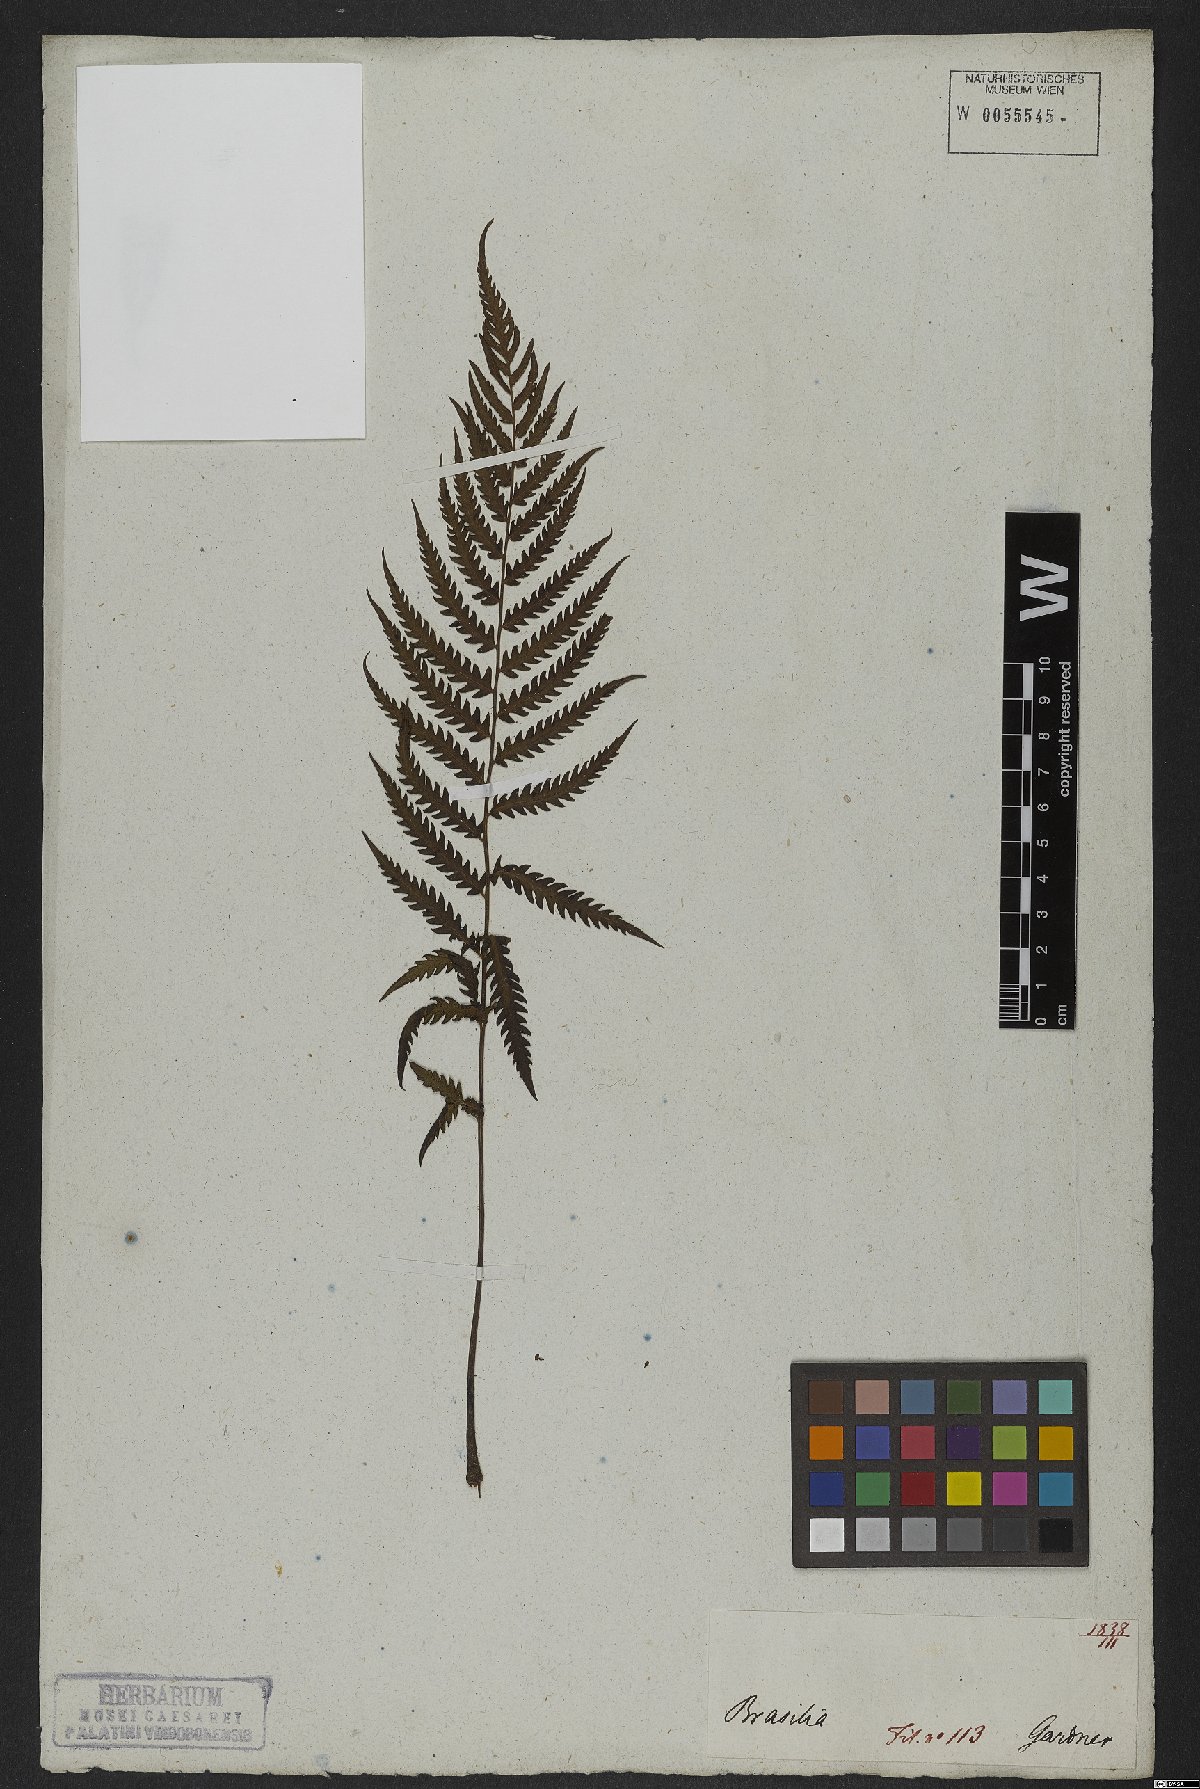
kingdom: Plantae
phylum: Tracheophyta
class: Polypodiopsida
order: Polypodiales
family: Thelypteridaceae
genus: Amauropelta
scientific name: Amauropelta opposita
